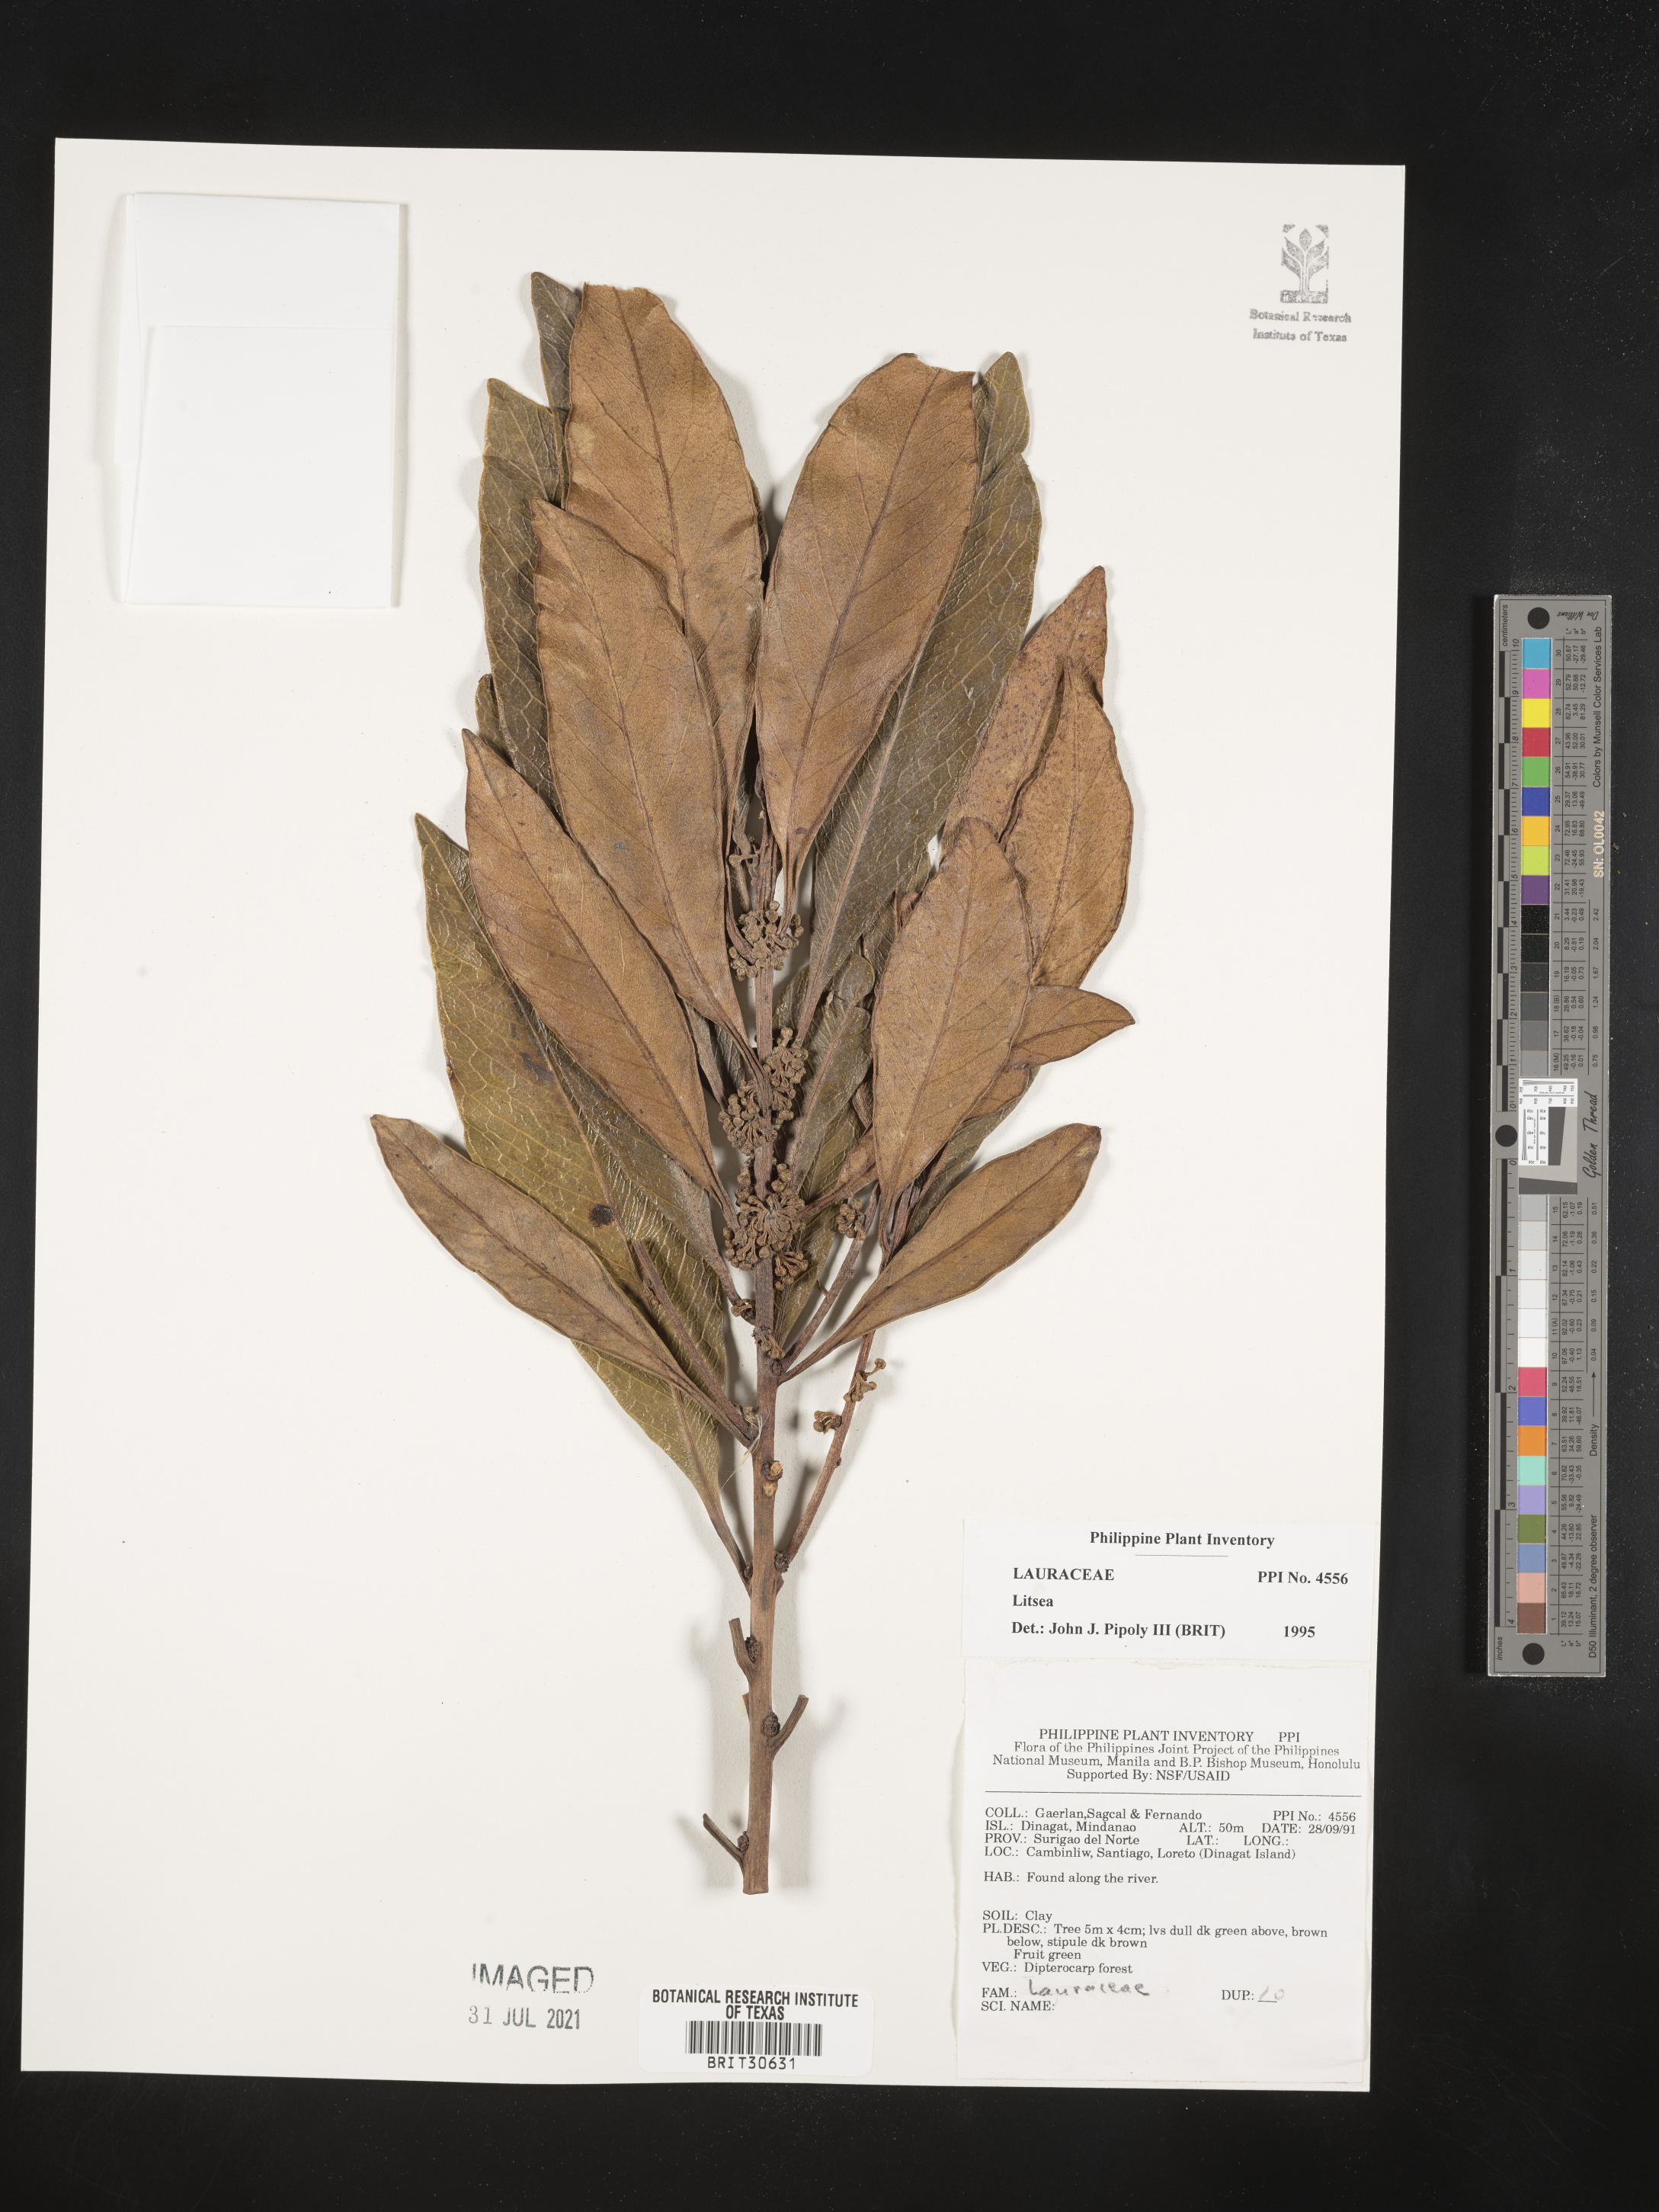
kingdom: Plantae
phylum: Tracheophyta
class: Magnoliopsida
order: Laurales
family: Lauraceae
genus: Litsea
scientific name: Litsea
